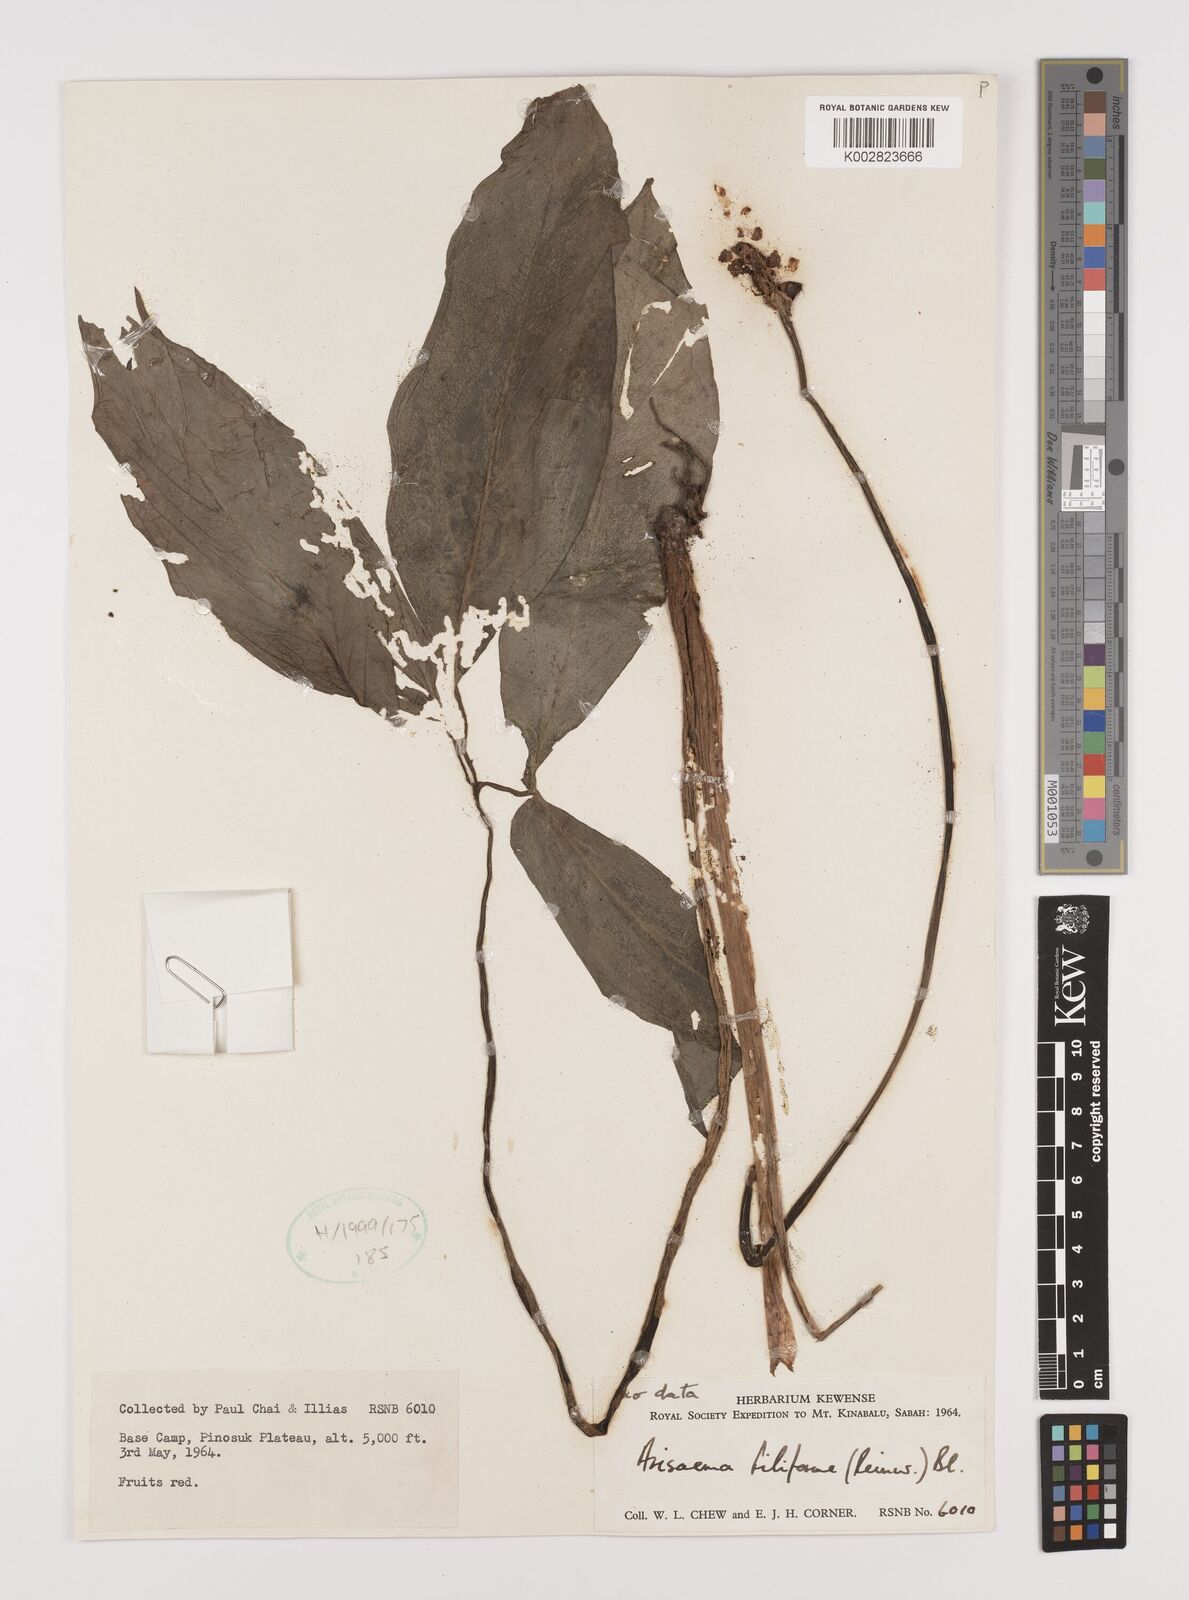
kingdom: Plantae
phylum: Tracheophyta
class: Liliopsida
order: Alismatales
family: Araceae
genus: Arisaema
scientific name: Arisaema filiforme
